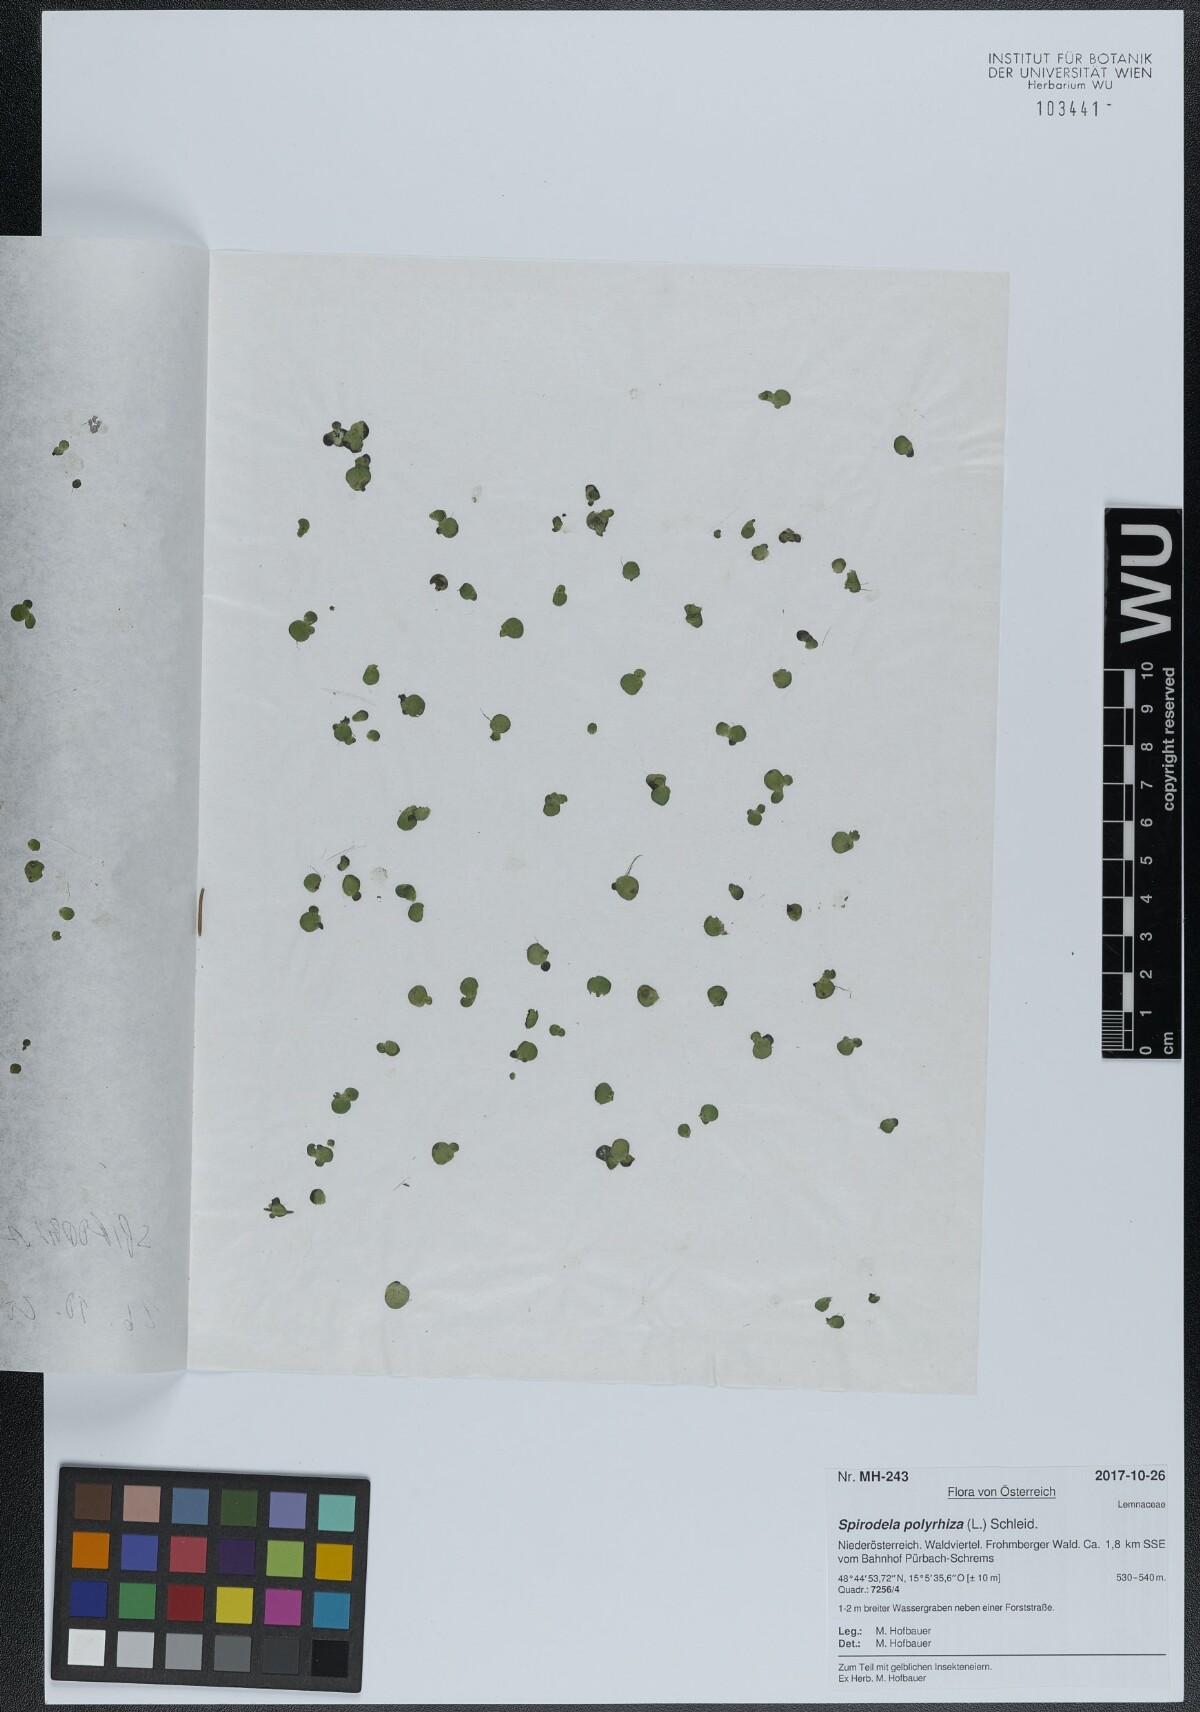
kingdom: Plantae
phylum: Tracheophyta
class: Liliopsida
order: Alismatales
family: Araceae
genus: Spirodela
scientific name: Spirodela polyrhiza
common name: Great duckweed
